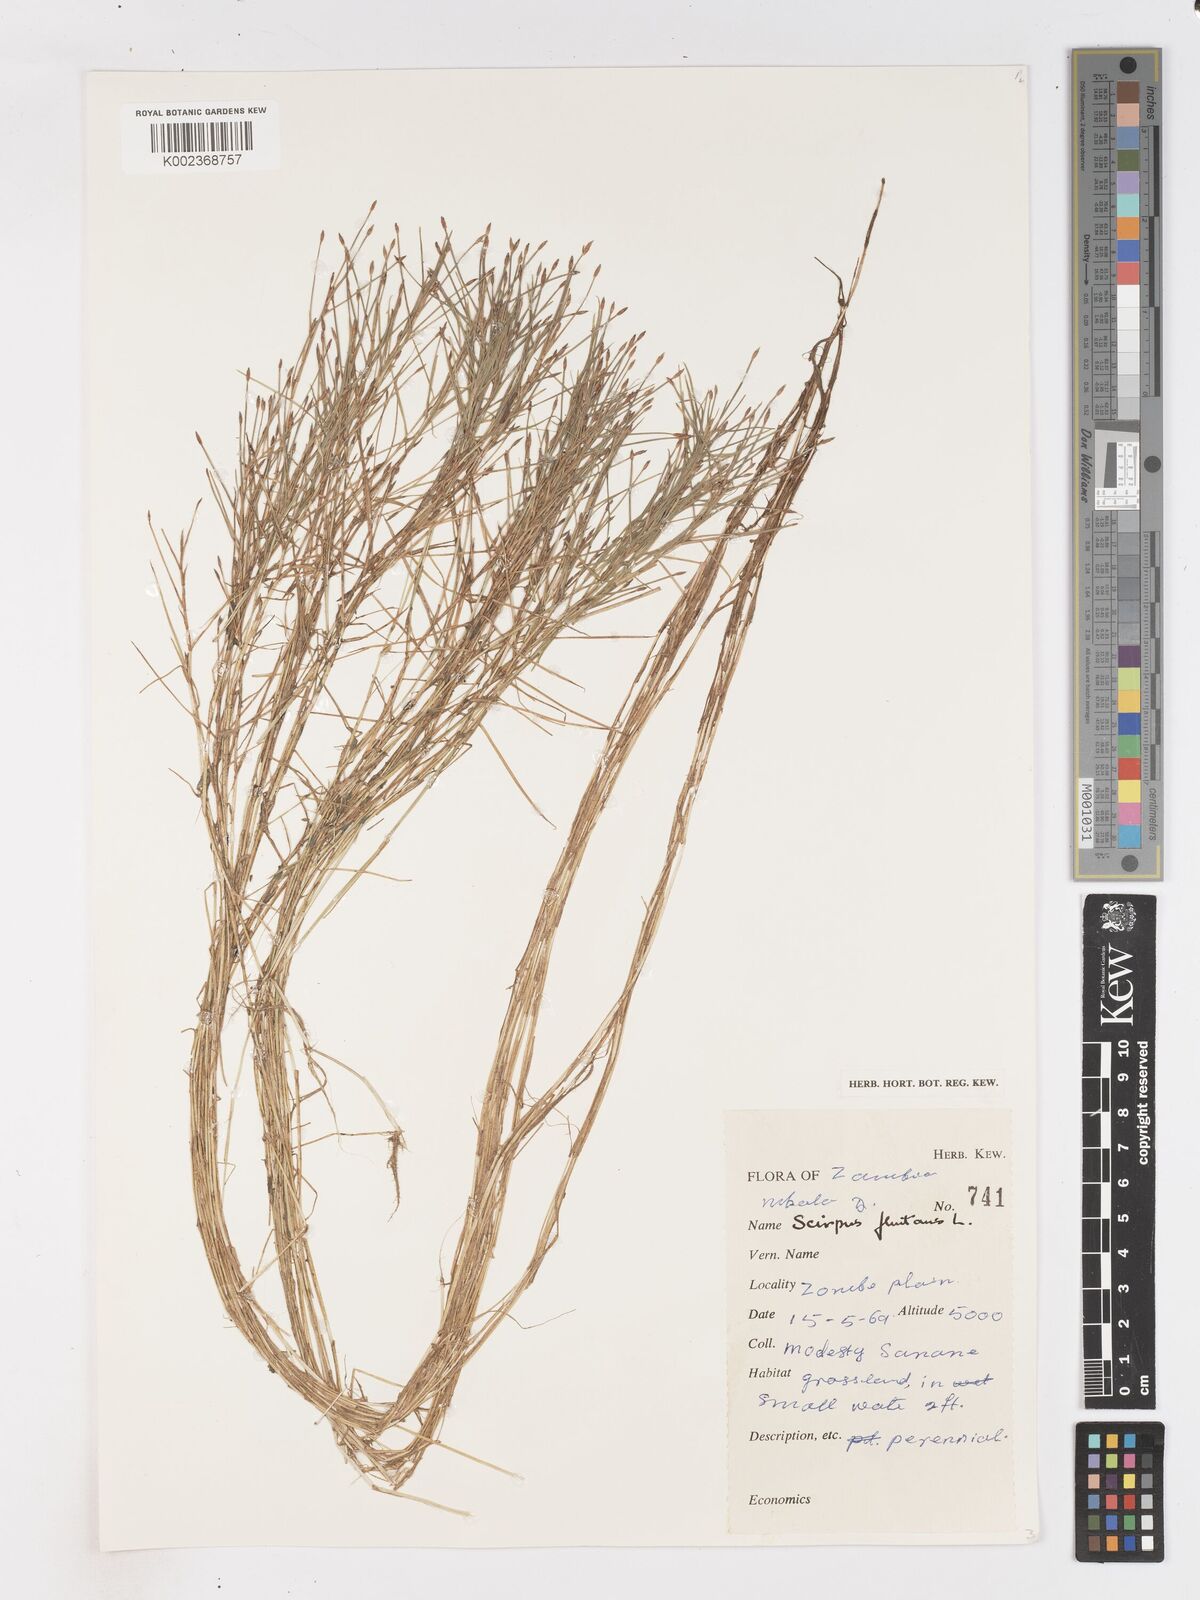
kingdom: Plantae
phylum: Tracheophyta
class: Liliopsida
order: Poales
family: Cyperaceae
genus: Isolepis
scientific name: Isolepis fluitans
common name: Floating club-rush
